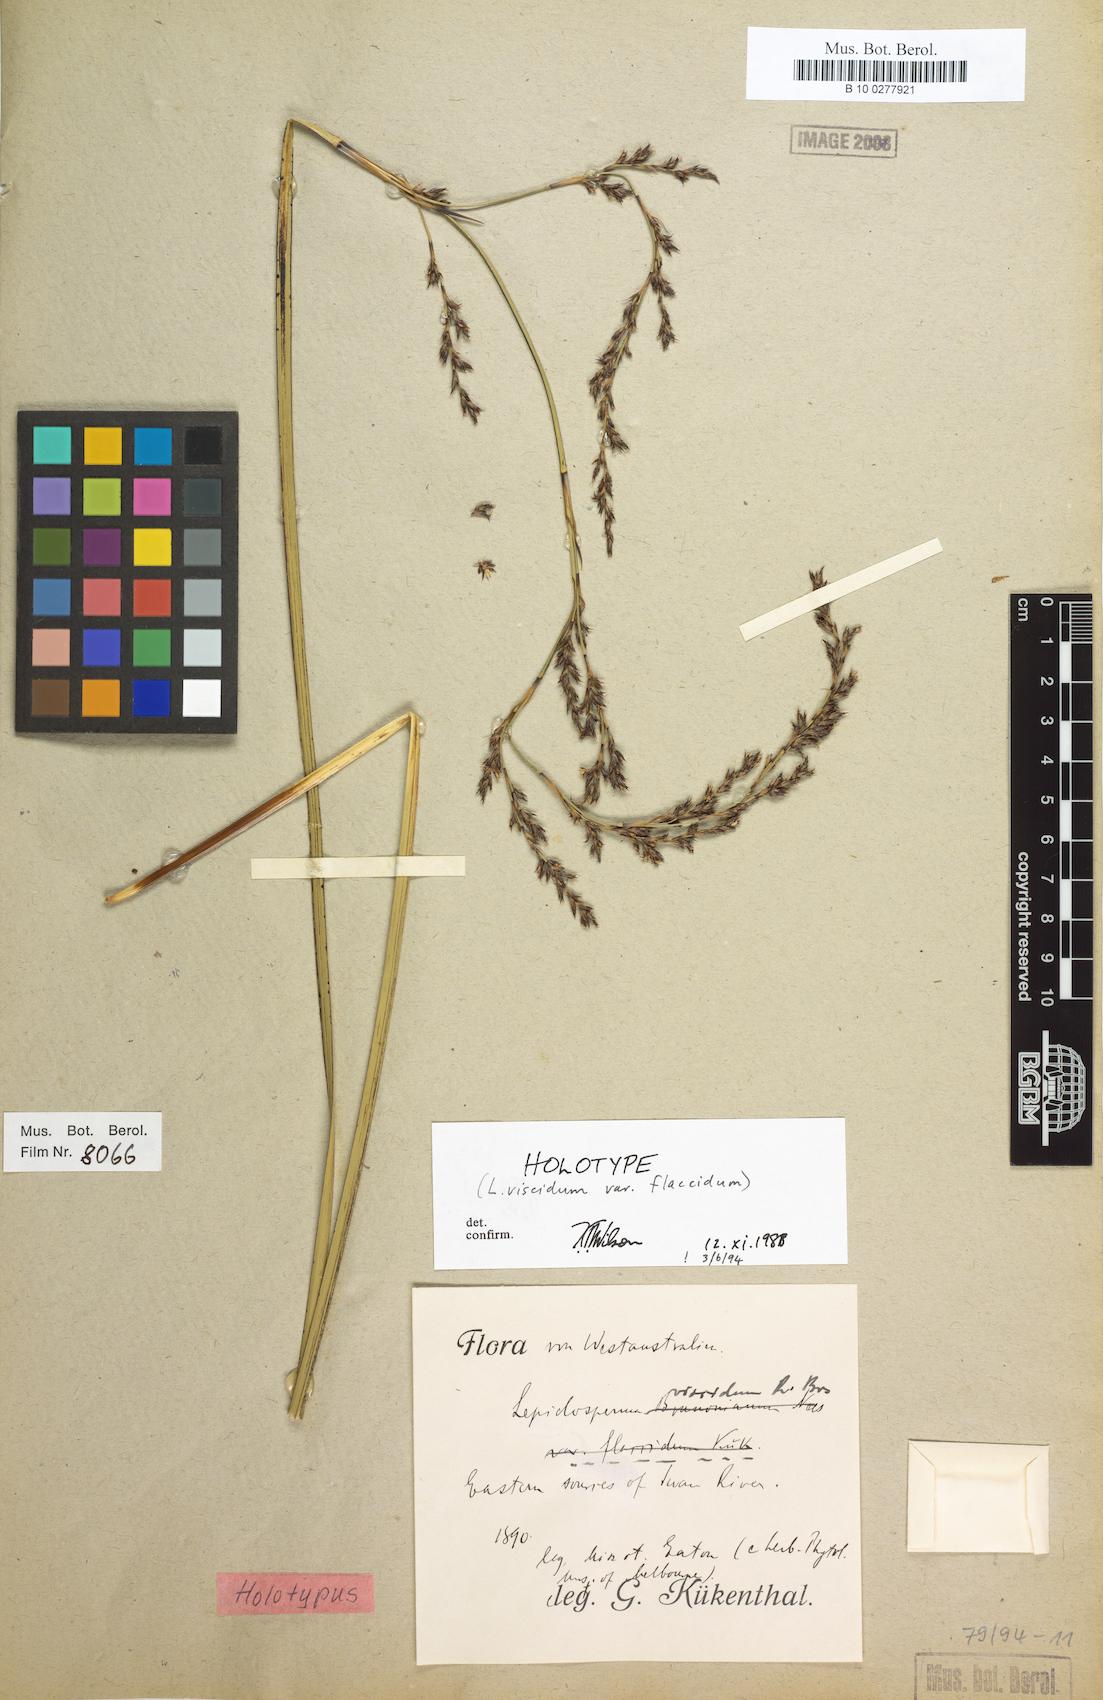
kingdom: Plantae
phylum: Tracheophyta
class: Liliopsida
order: Poales
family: Cyperaceae
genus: Lepidosperma
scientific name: Lepidosperma viscidum
